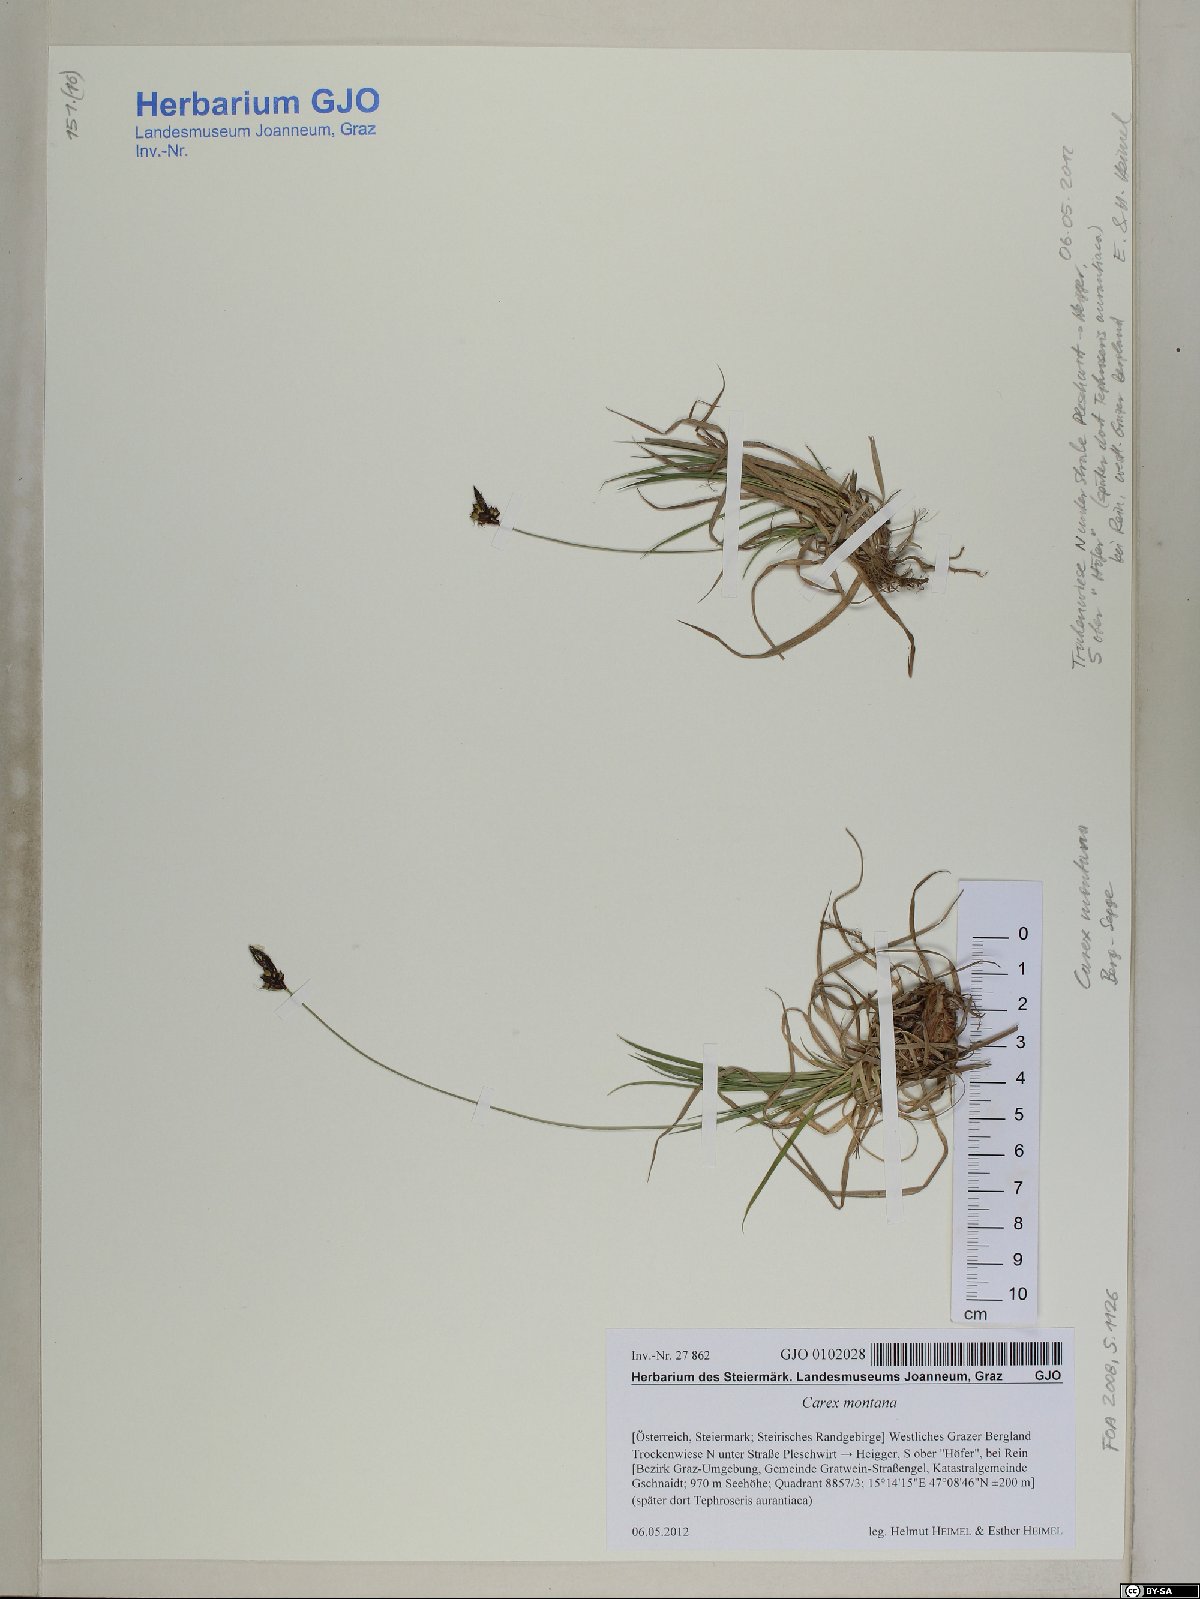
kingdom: Plantae
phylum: Tracheophyta
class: Liliopsida
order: Poales
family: Cyperaceae
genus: Carex
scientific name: Carex montana
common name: Soft-leaved sedge
